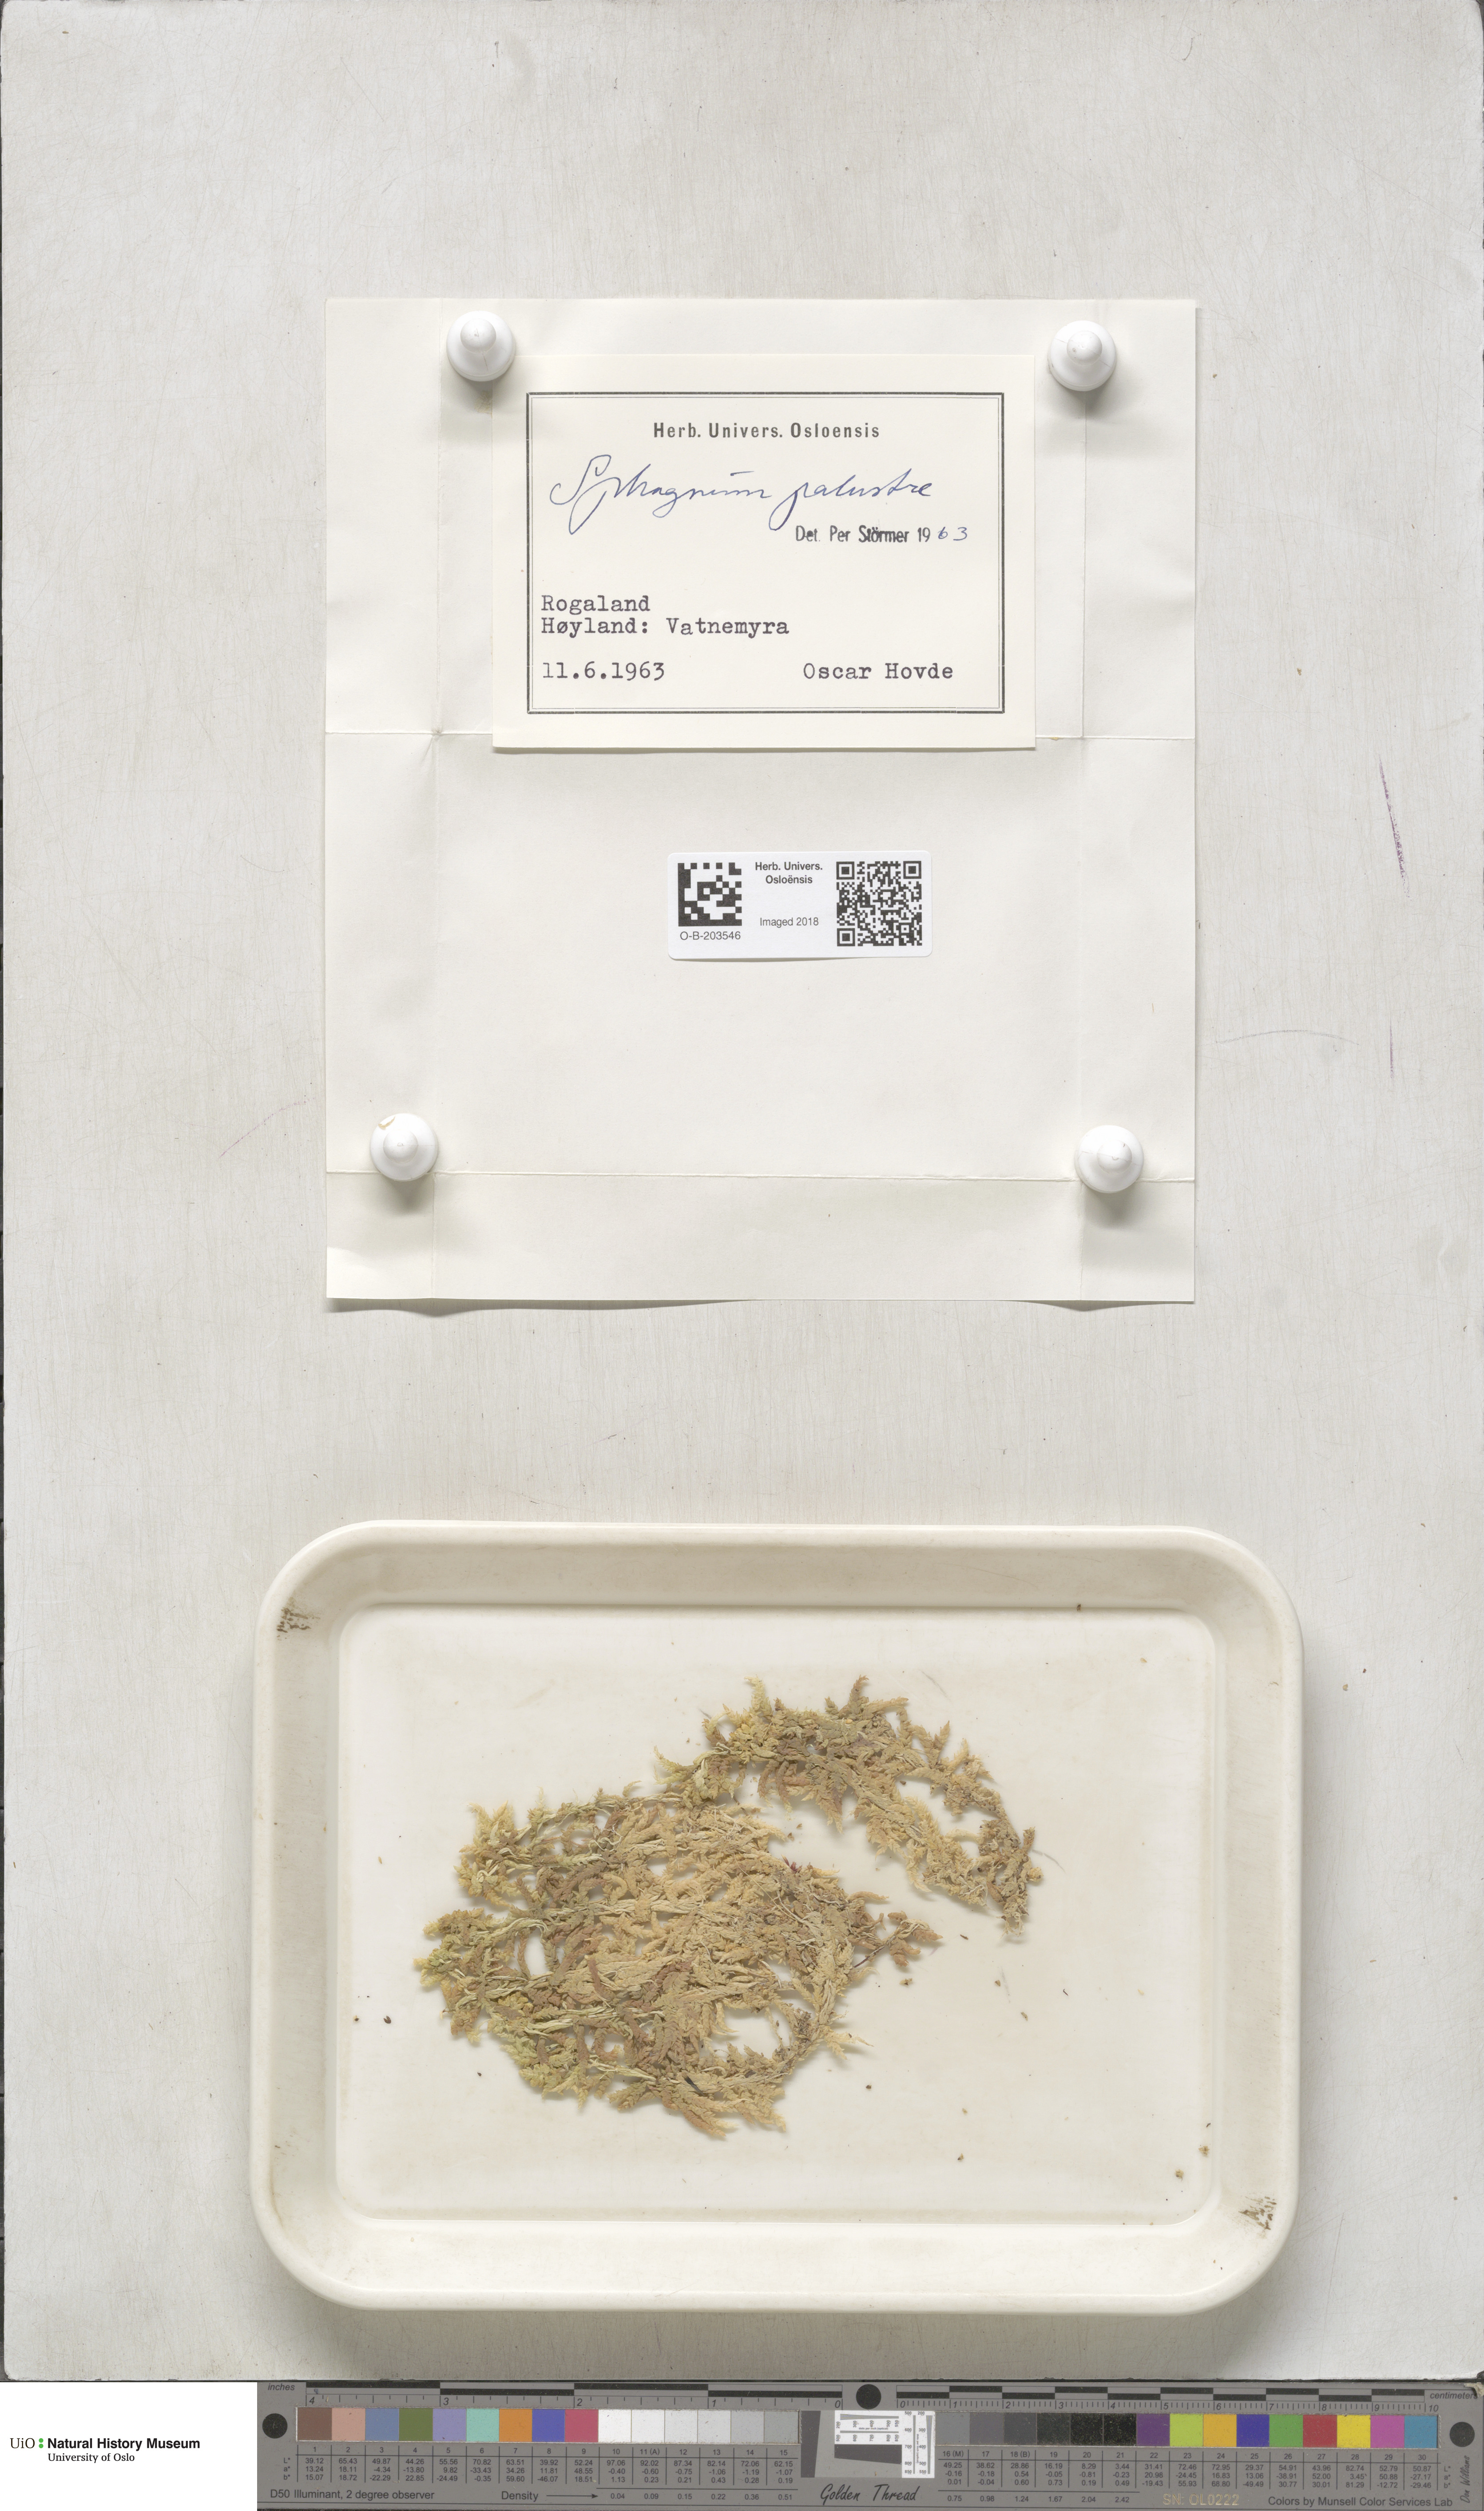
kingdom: Plantae
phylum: Bryophyta
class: Sphagnopsida
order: Sphagnales
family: Sphagnaceae
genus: Sphagnum
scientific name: Sphagnum palustre
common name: Blunt-leaved bog-moss
